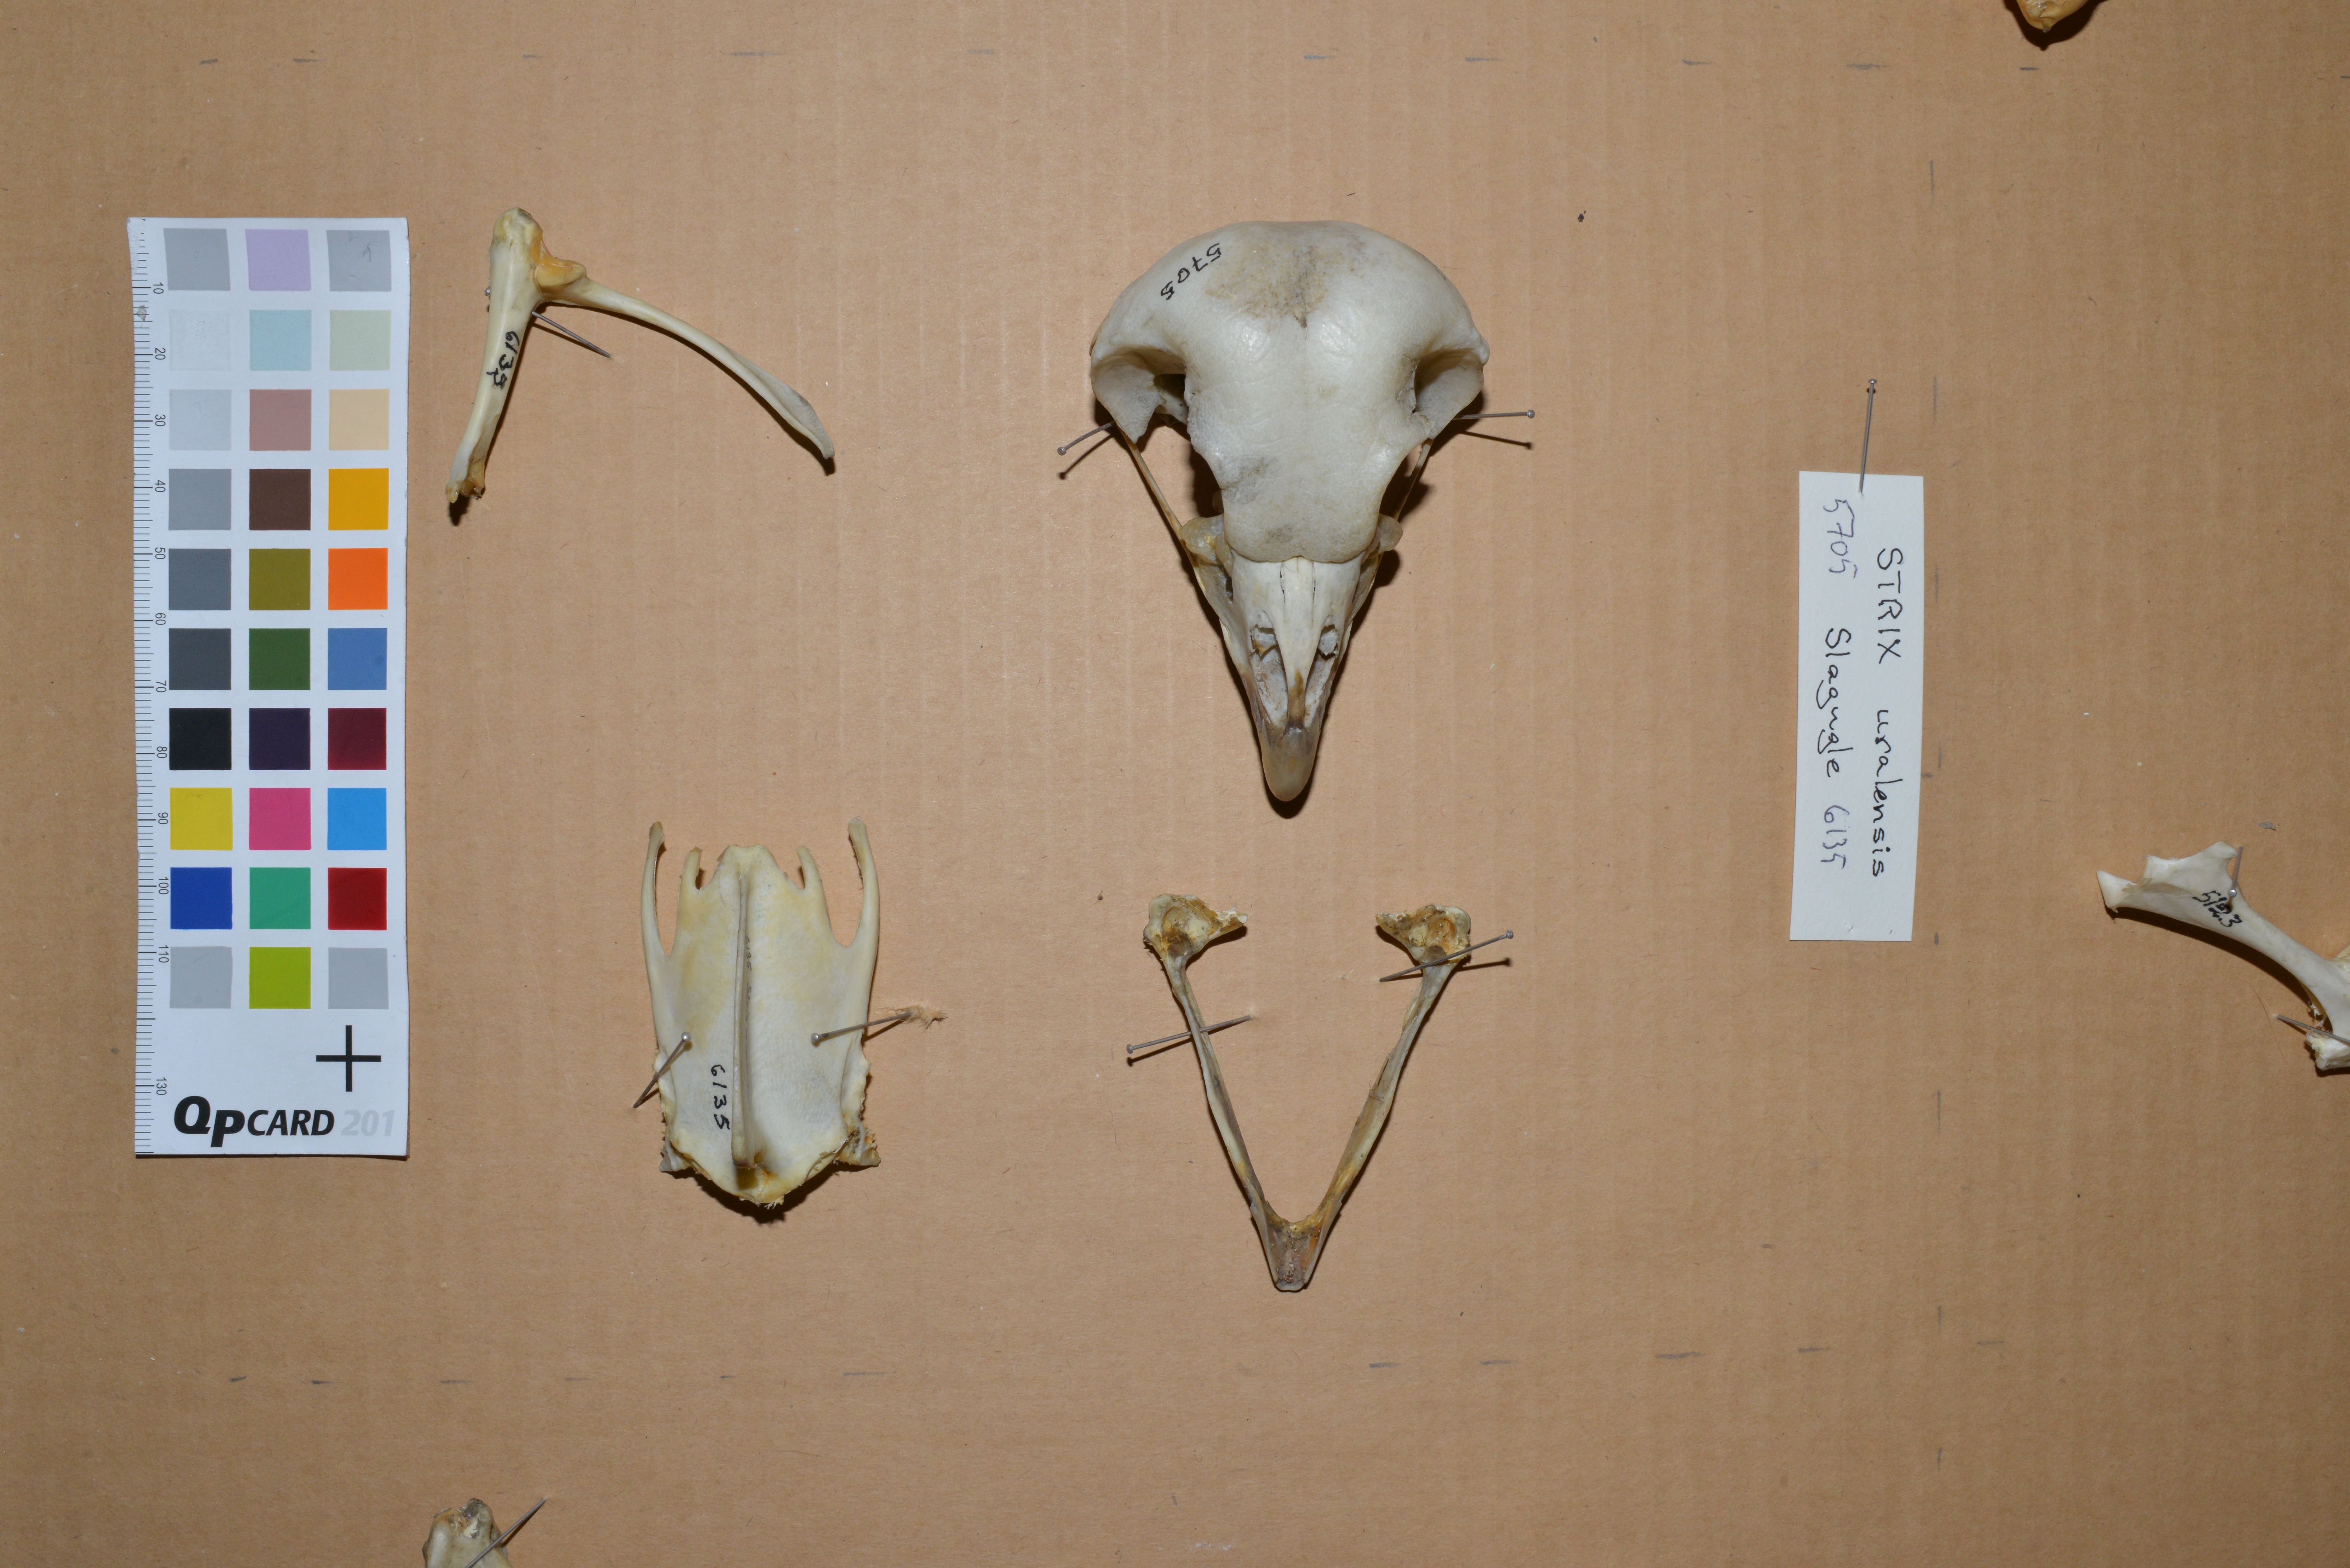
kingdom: Animalia
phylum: Chordata
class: Aves
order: Strigiformes
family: Strigidae
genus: Strix
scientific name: Strix uralensis
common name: Ural owl
